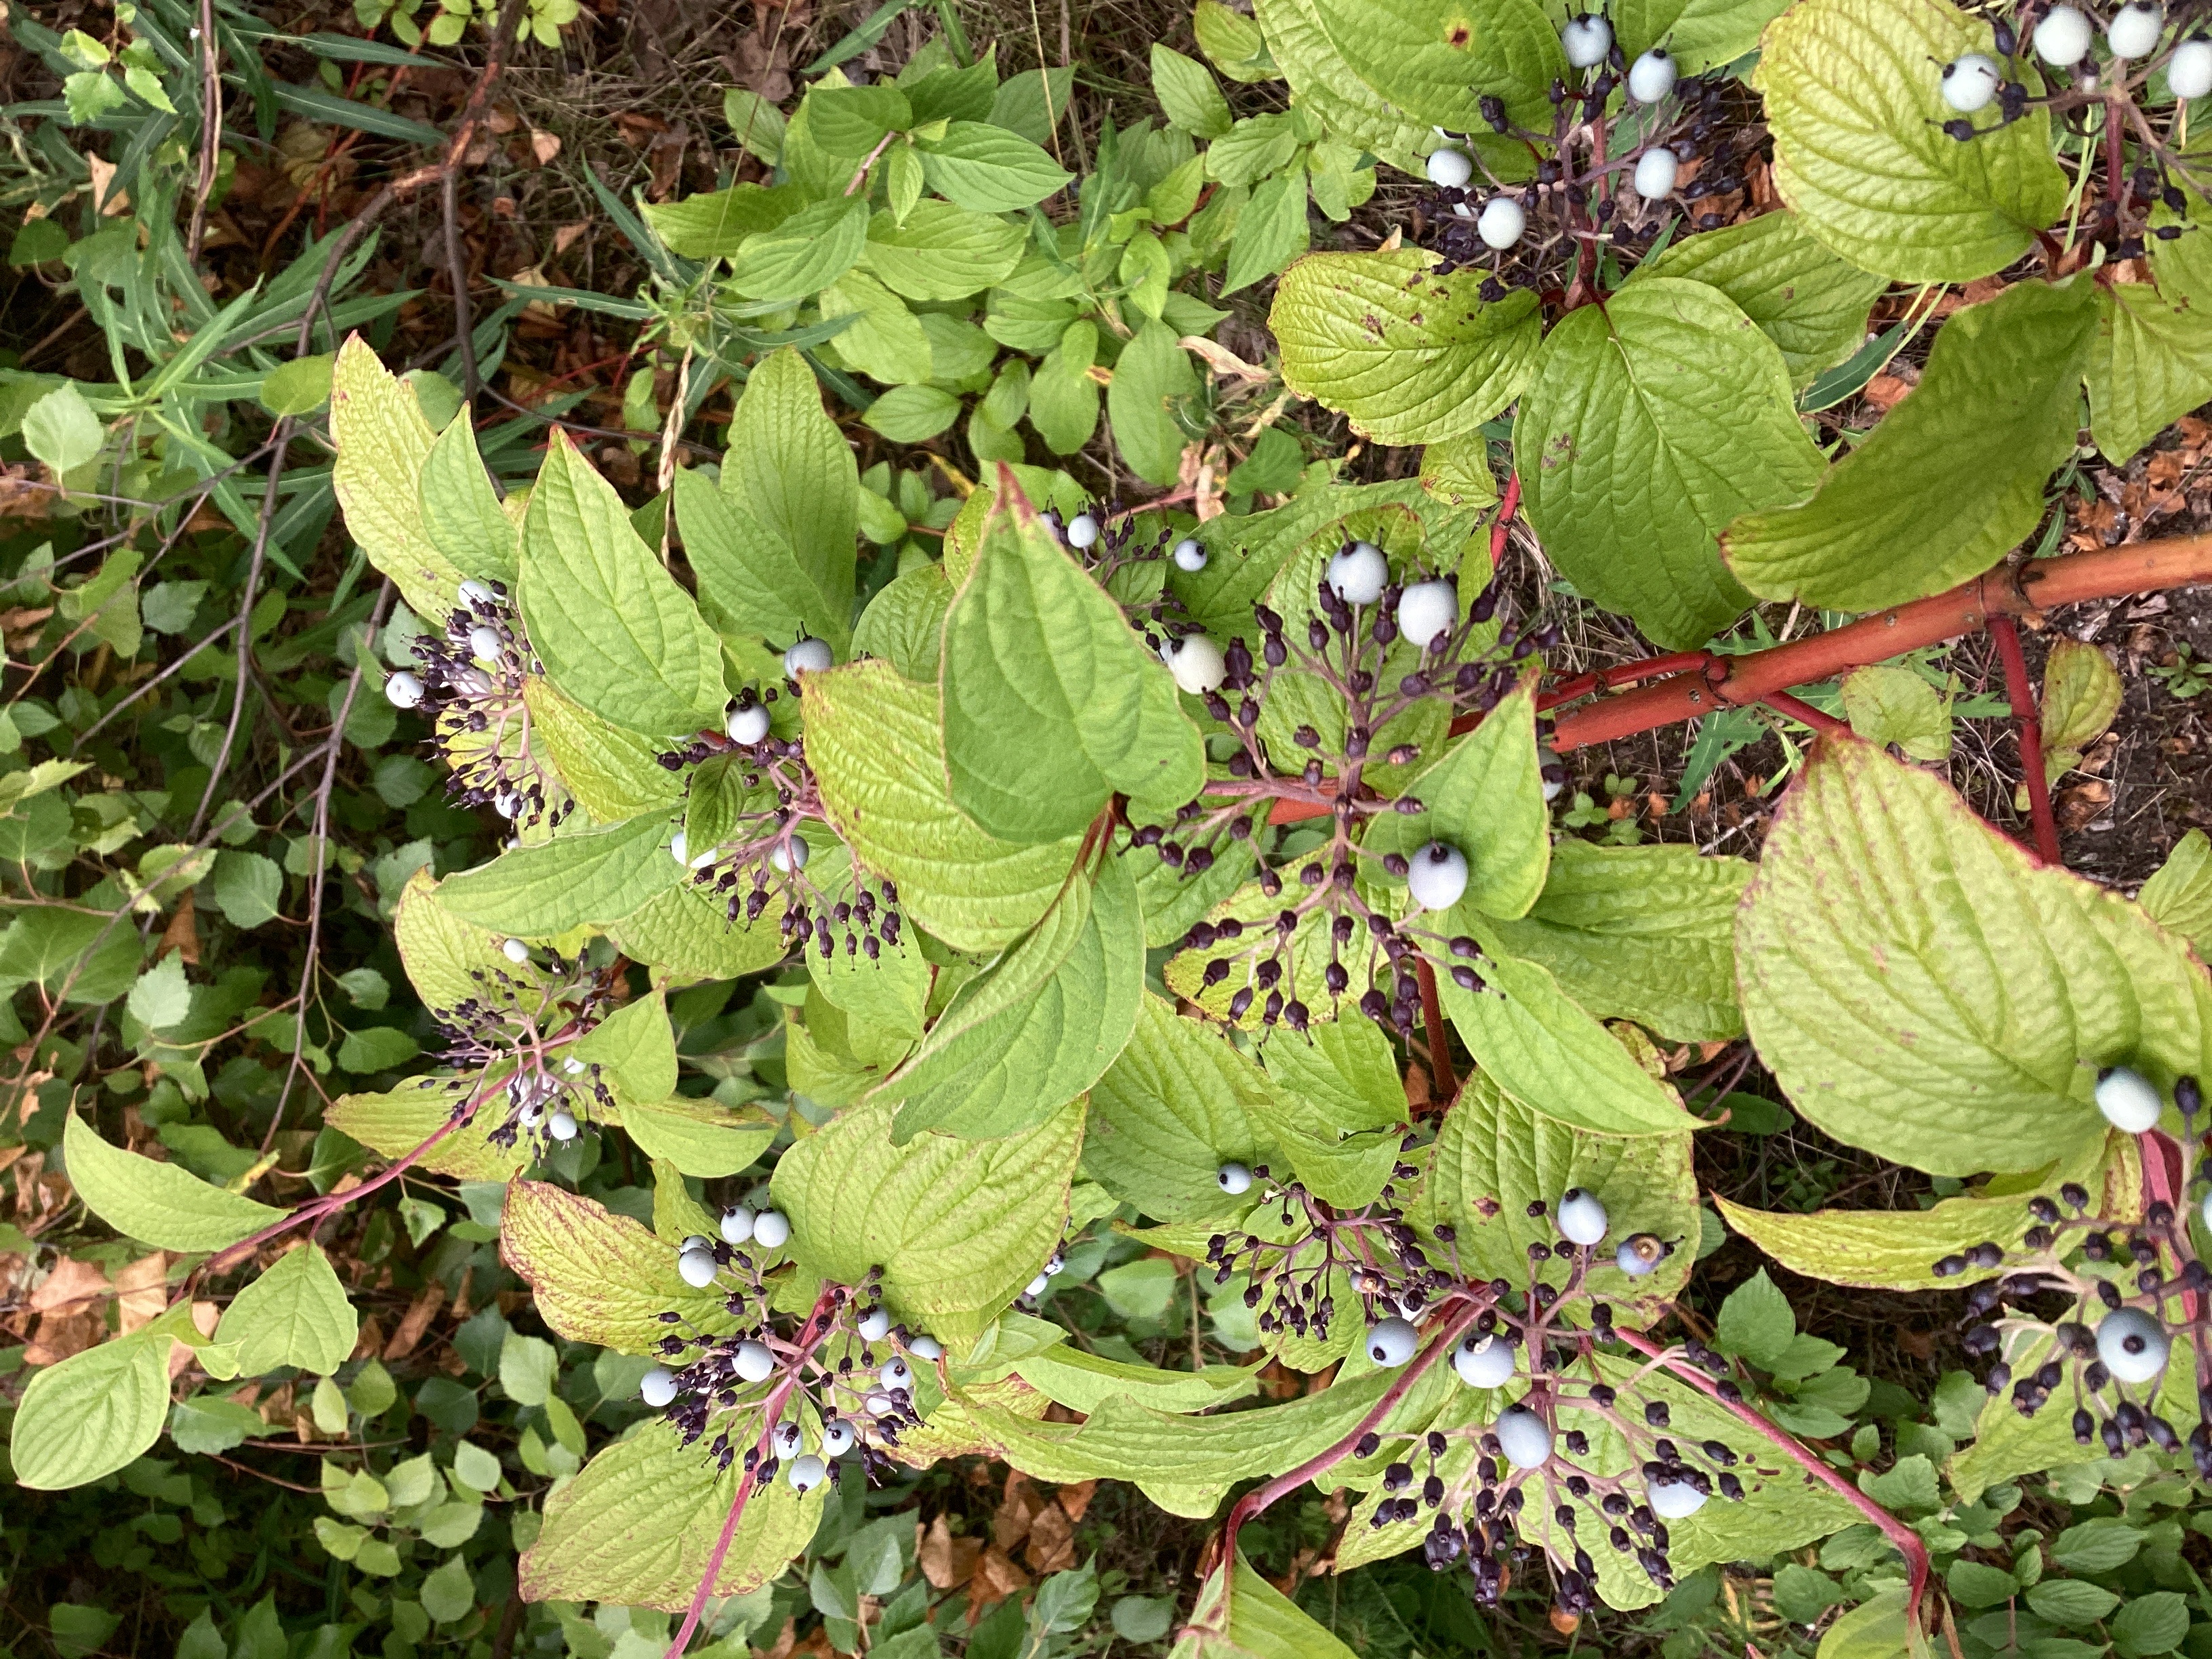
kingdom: Plantae
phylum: Tracheophyta
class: Magnoliopsida
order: Cornales
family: Cornaceae
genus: Cornus
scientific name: Cornus alba
